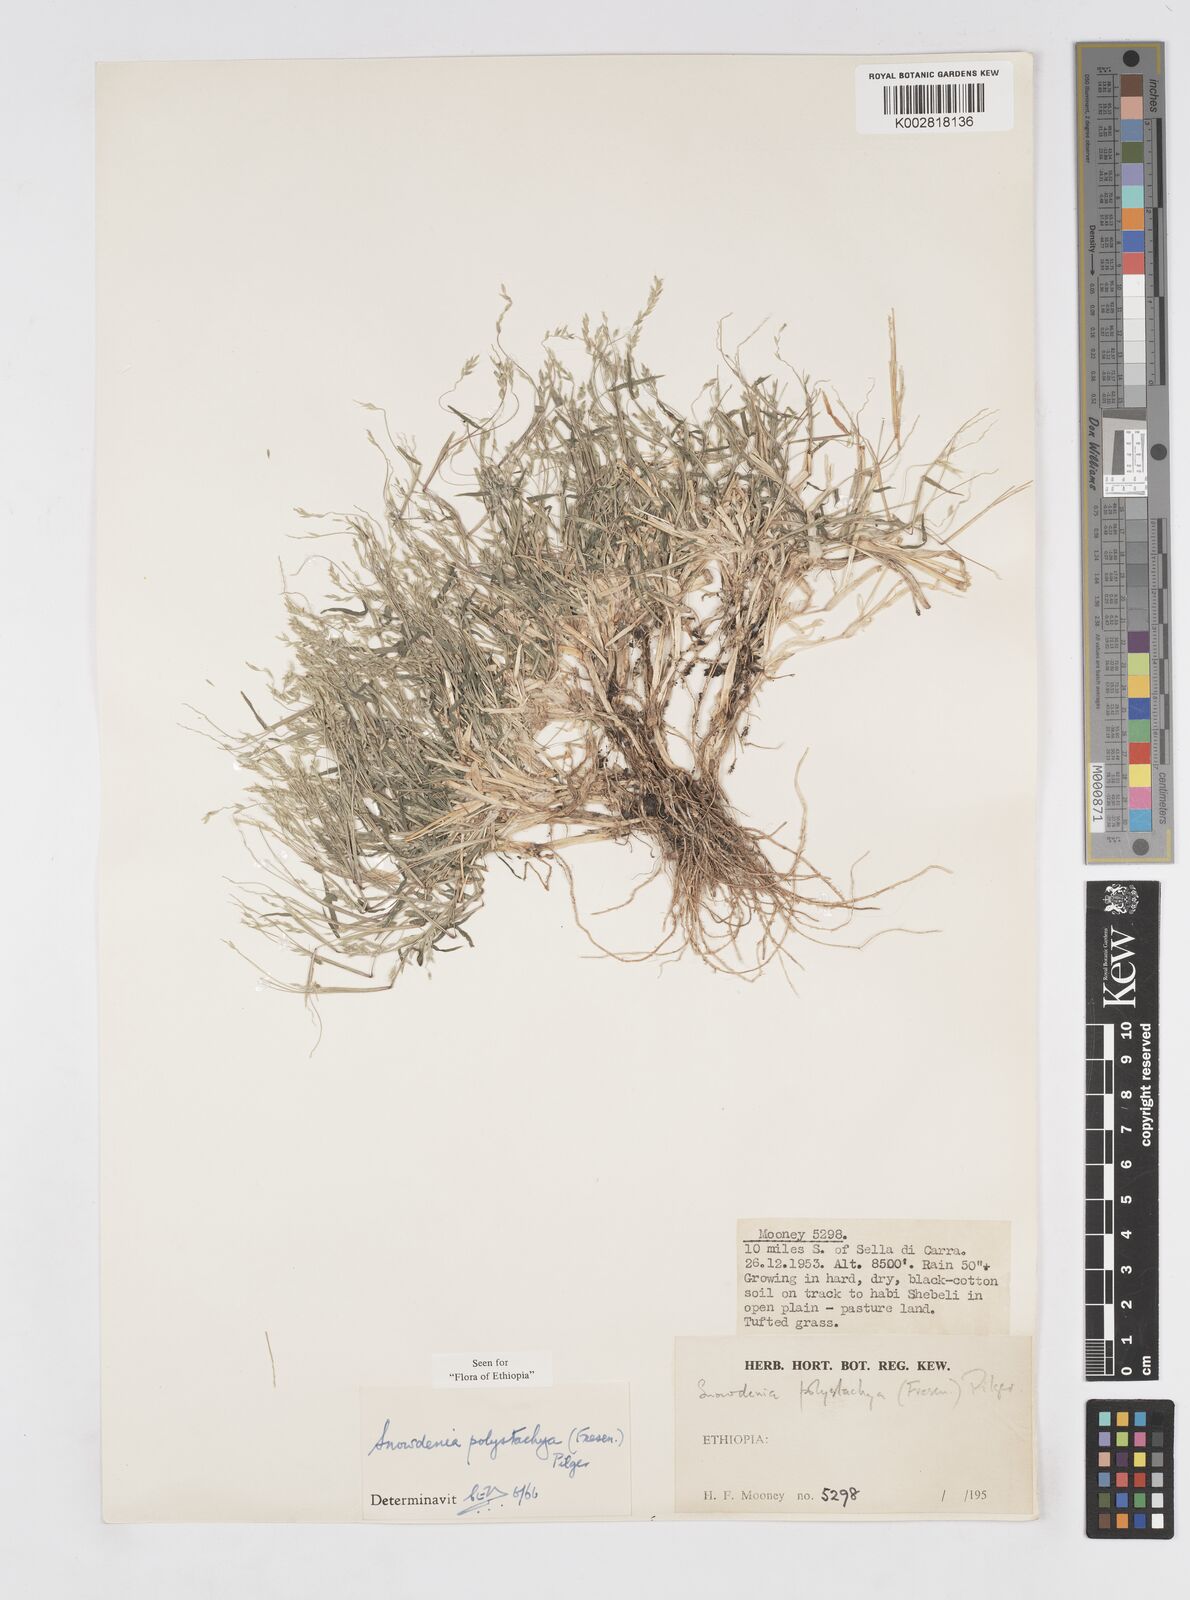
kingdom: Plantae
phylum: Tracheophyta
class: Liliopsida
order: Poales
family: Poaceae
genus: Snowdenia
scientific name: Snowdenia polystachya
